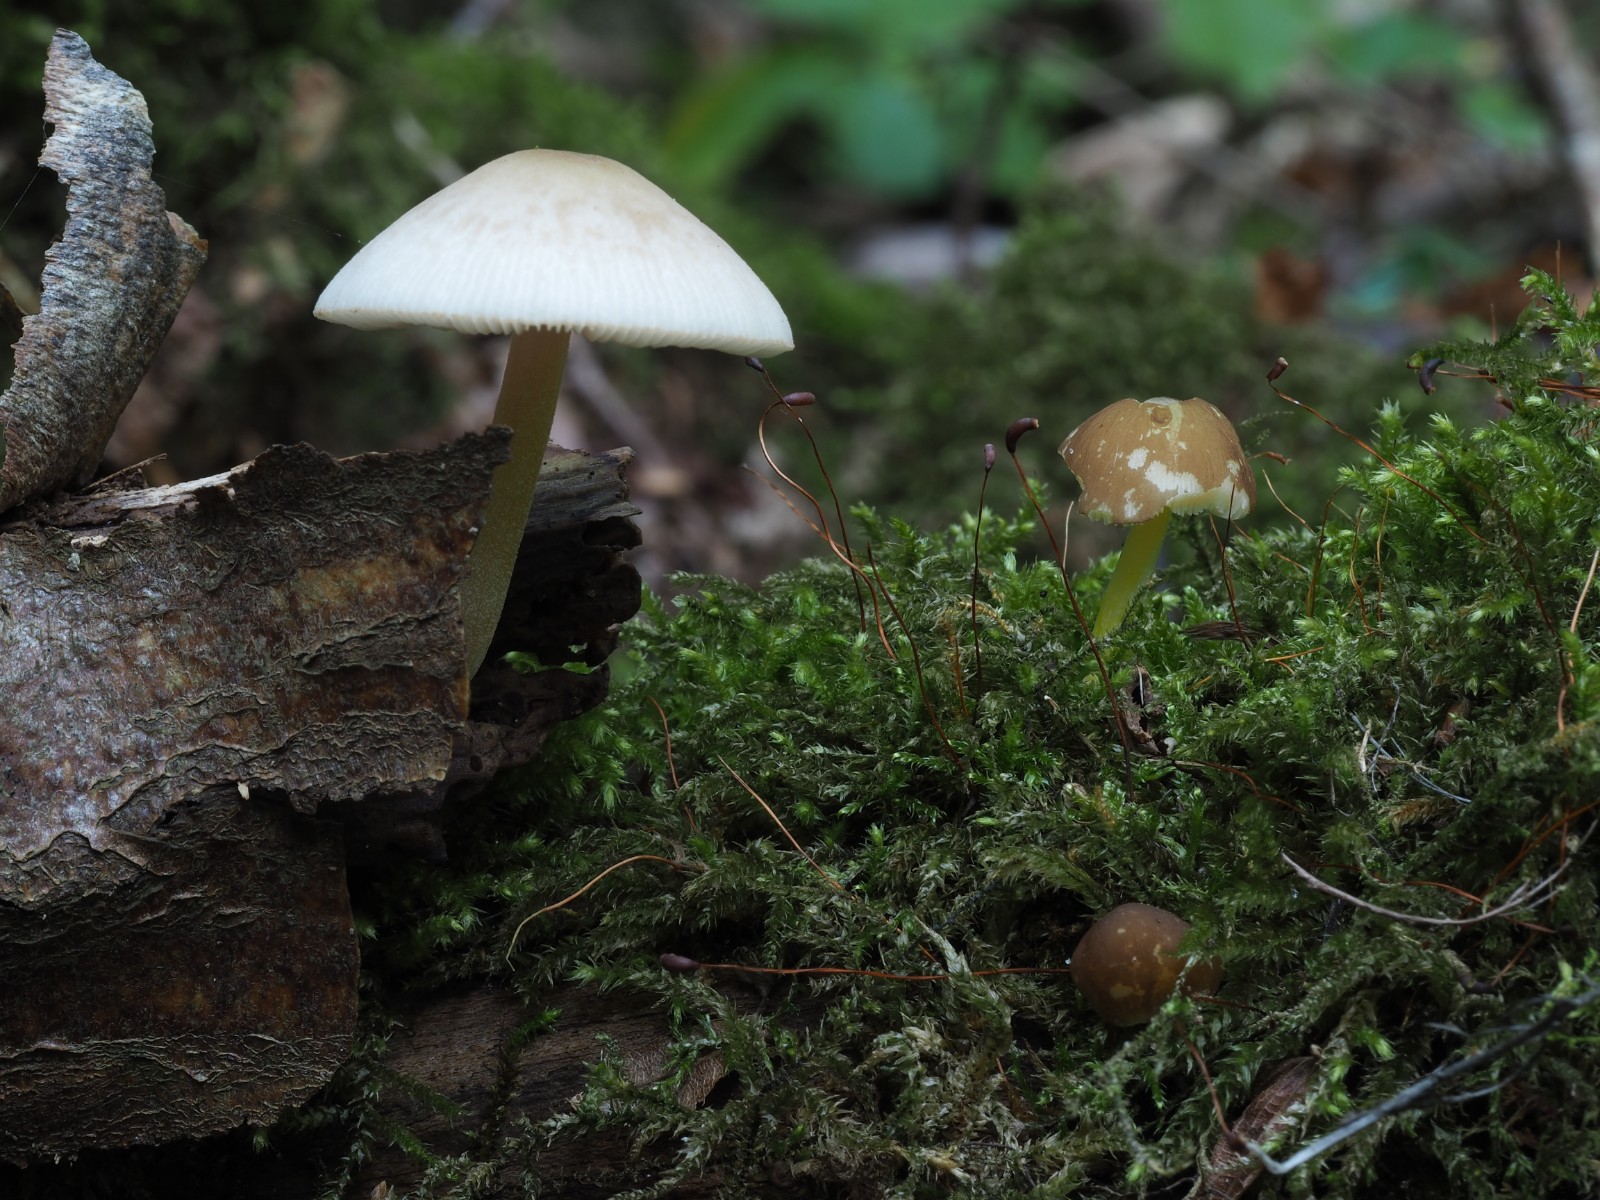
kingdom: Fungi
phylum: Basidiomycota
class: Agaricomycetes
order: Agaricales
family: Pluteaceae
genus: Pluteus
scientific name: Pluteus romellii
